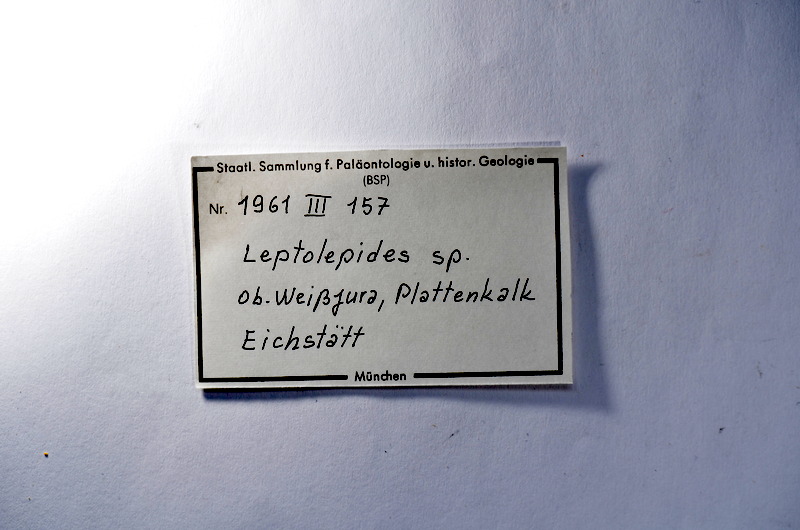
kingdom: Animalia
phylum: Chordata
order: Salmoniformes
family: Orthogonikleithridae
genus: Leptolepides
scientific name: Leptolepides
